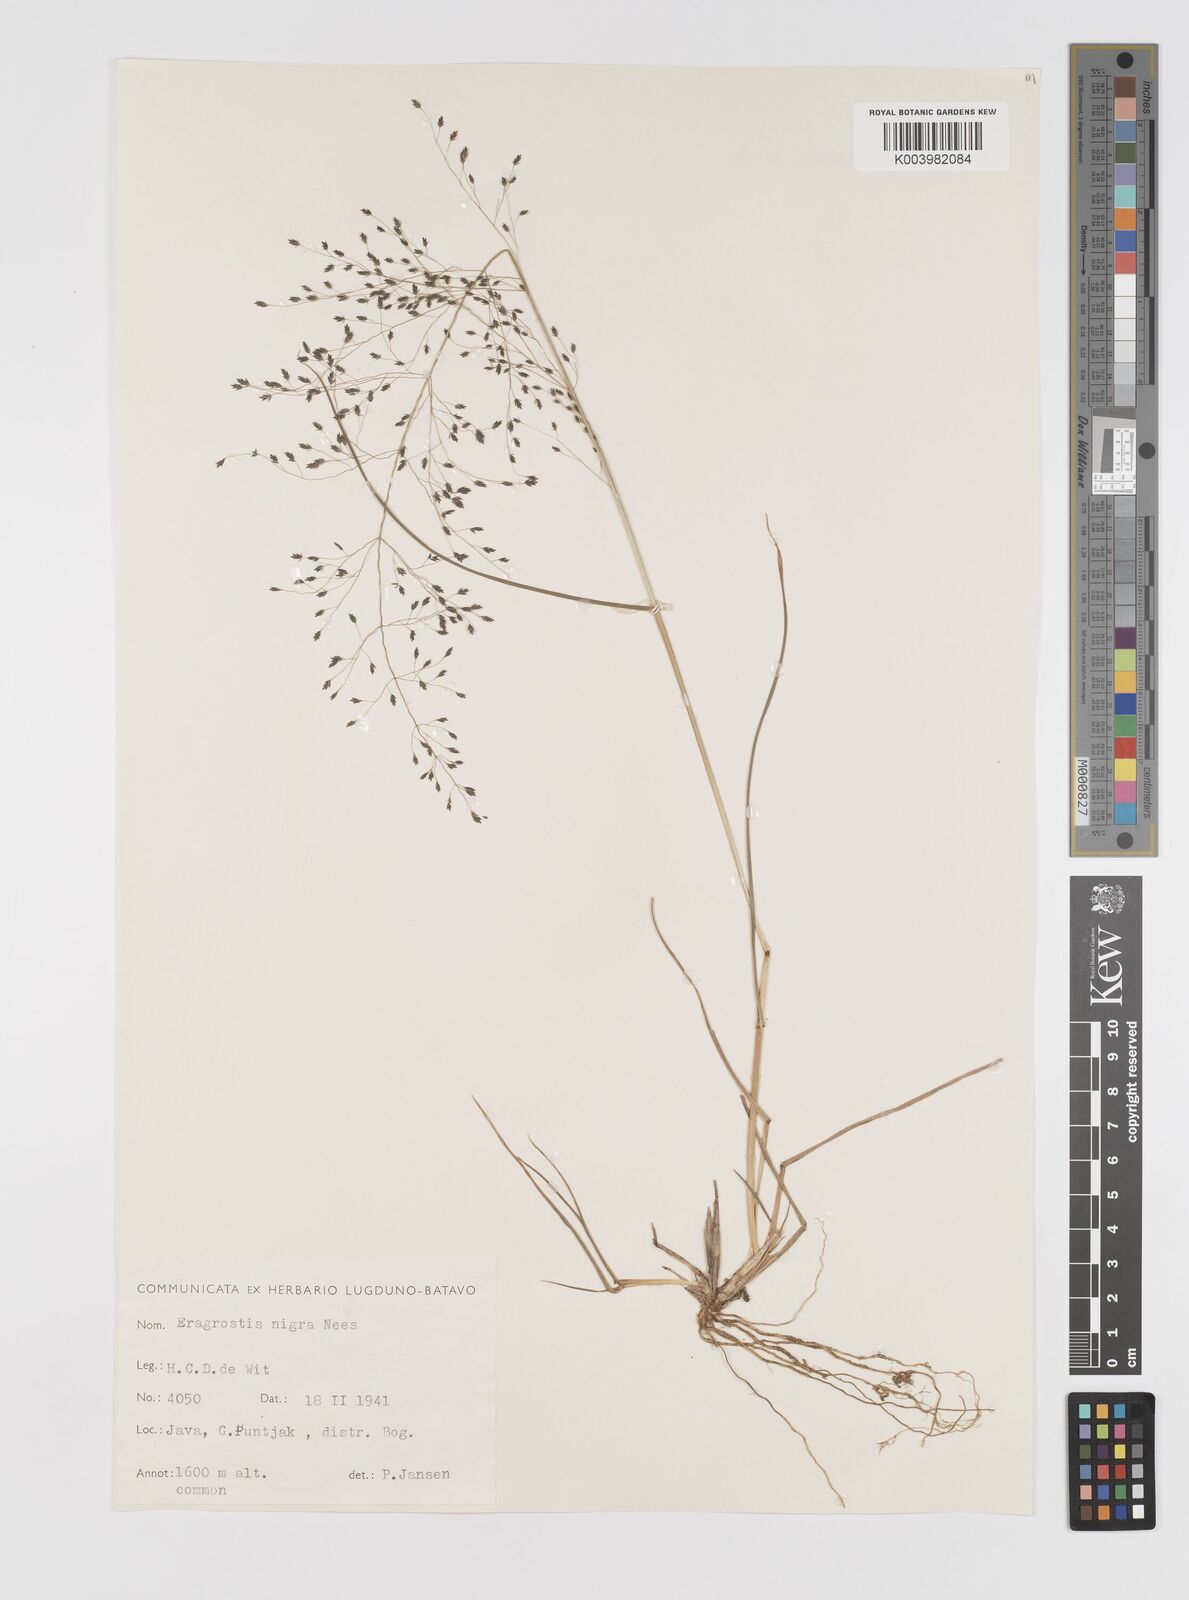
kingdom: Plantae
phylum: Tracheophyta
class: Liliopsida
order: Poales
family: Poaceae
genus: Eragrostis
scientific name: Eragrostis nigra
